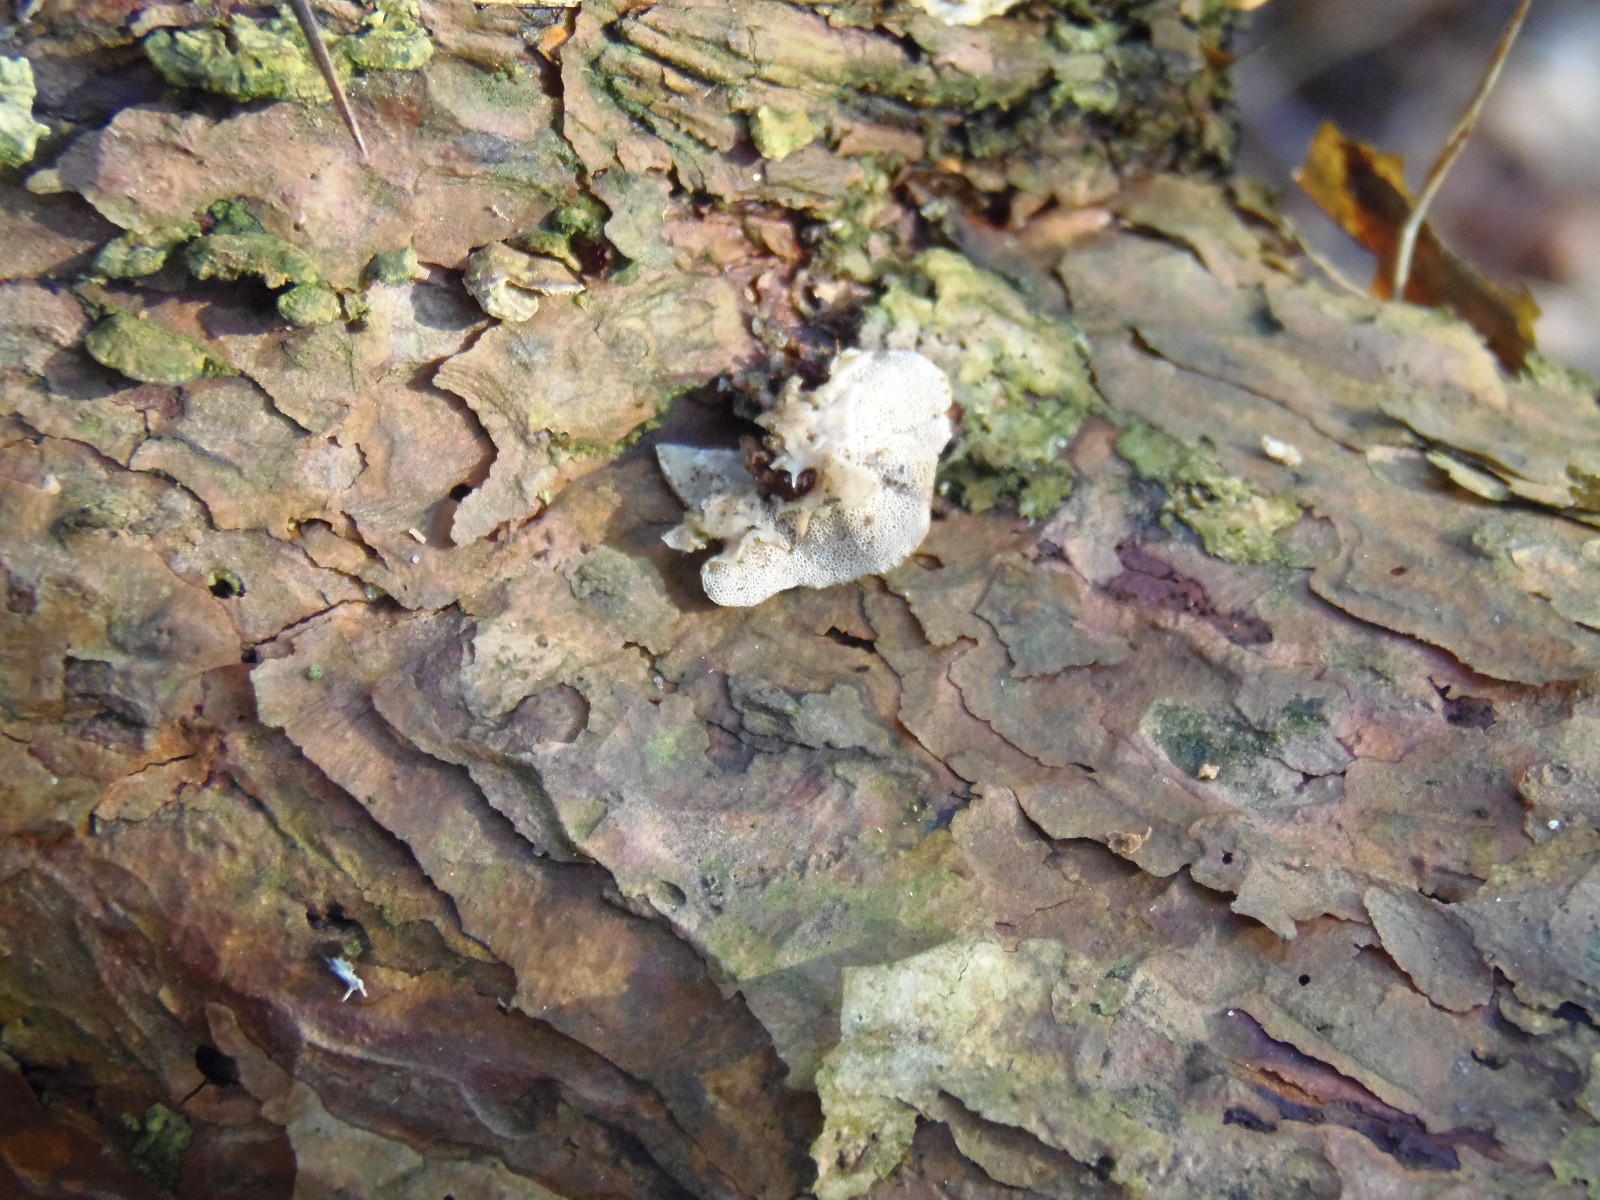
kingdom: Fungi
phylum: Basidiomycota
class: Agaricomycetes
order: Polyporales
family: Incrustoporiaceae
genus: Skeletocutis
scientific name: Skeletocutis carneogrisea
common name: rødgrå krystalporesvamp
